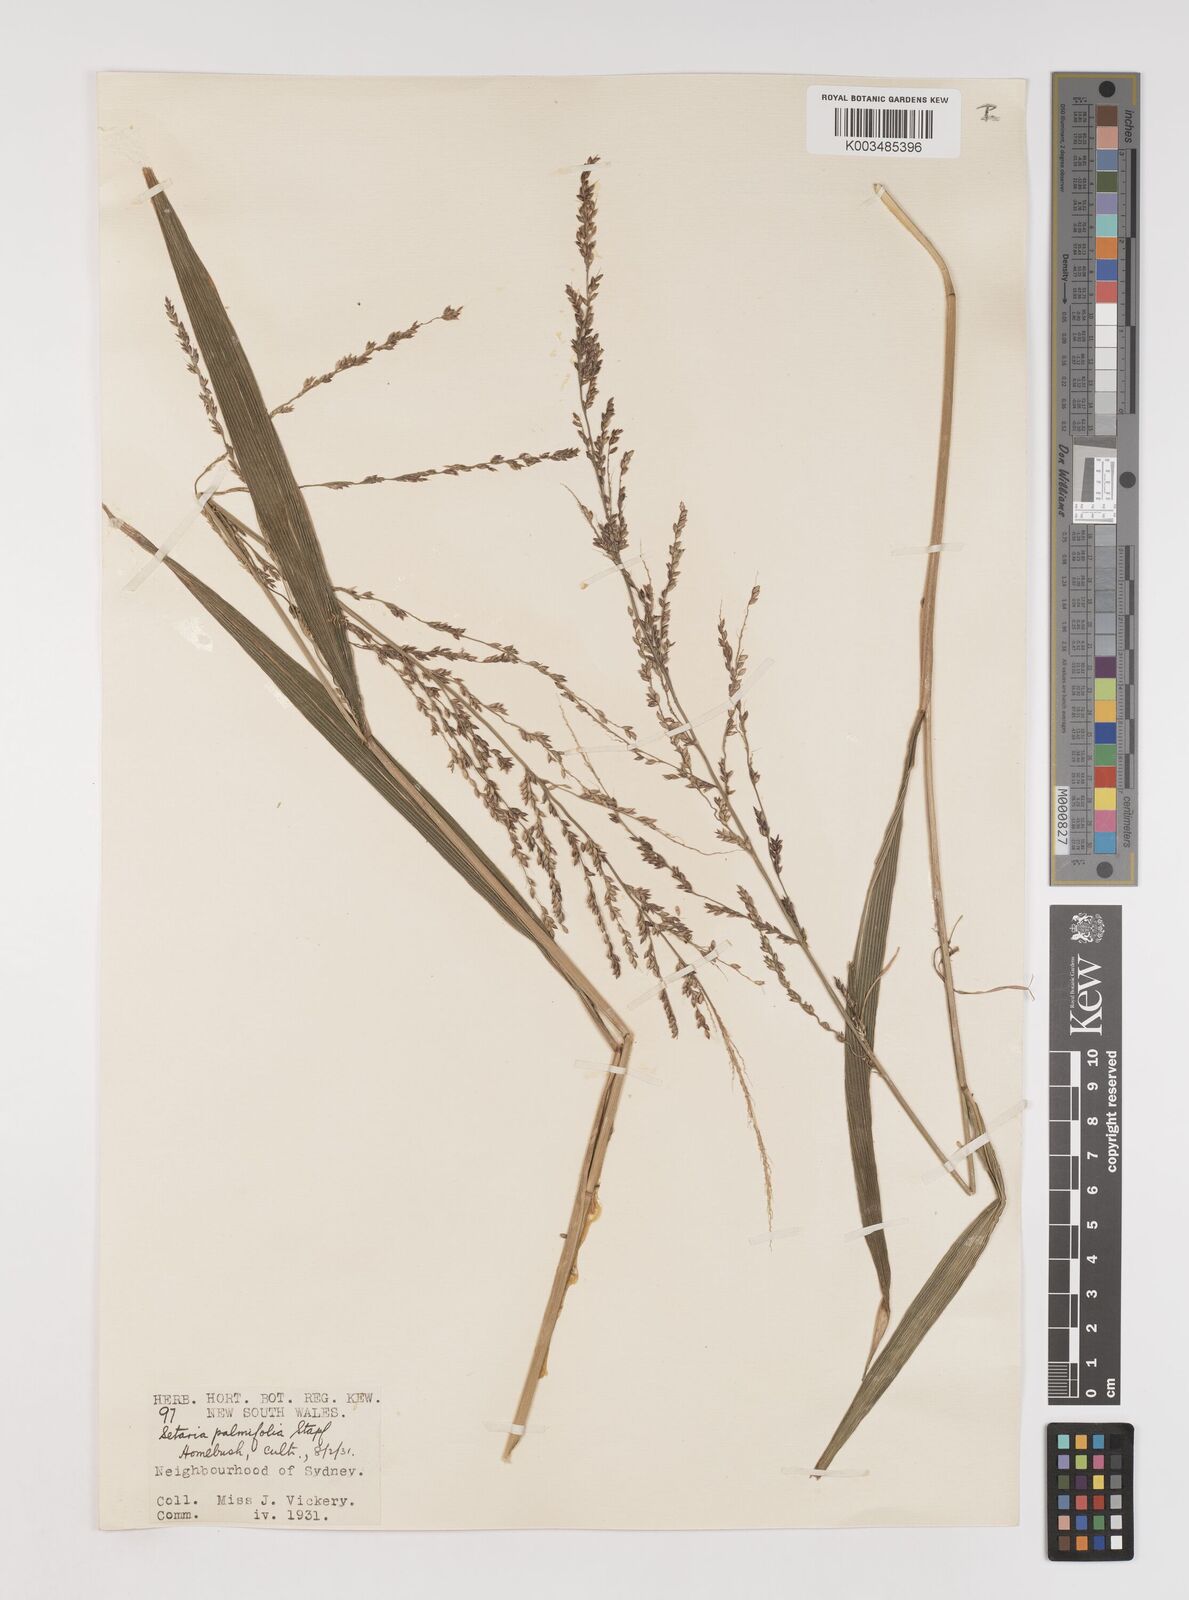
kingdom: Plantae
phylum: Tracheophyta
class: Liliopsida
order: Poales
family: Poaceae
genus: Setaria
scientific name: Setaria palmifolia
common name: Broadleaved bristlegrass
